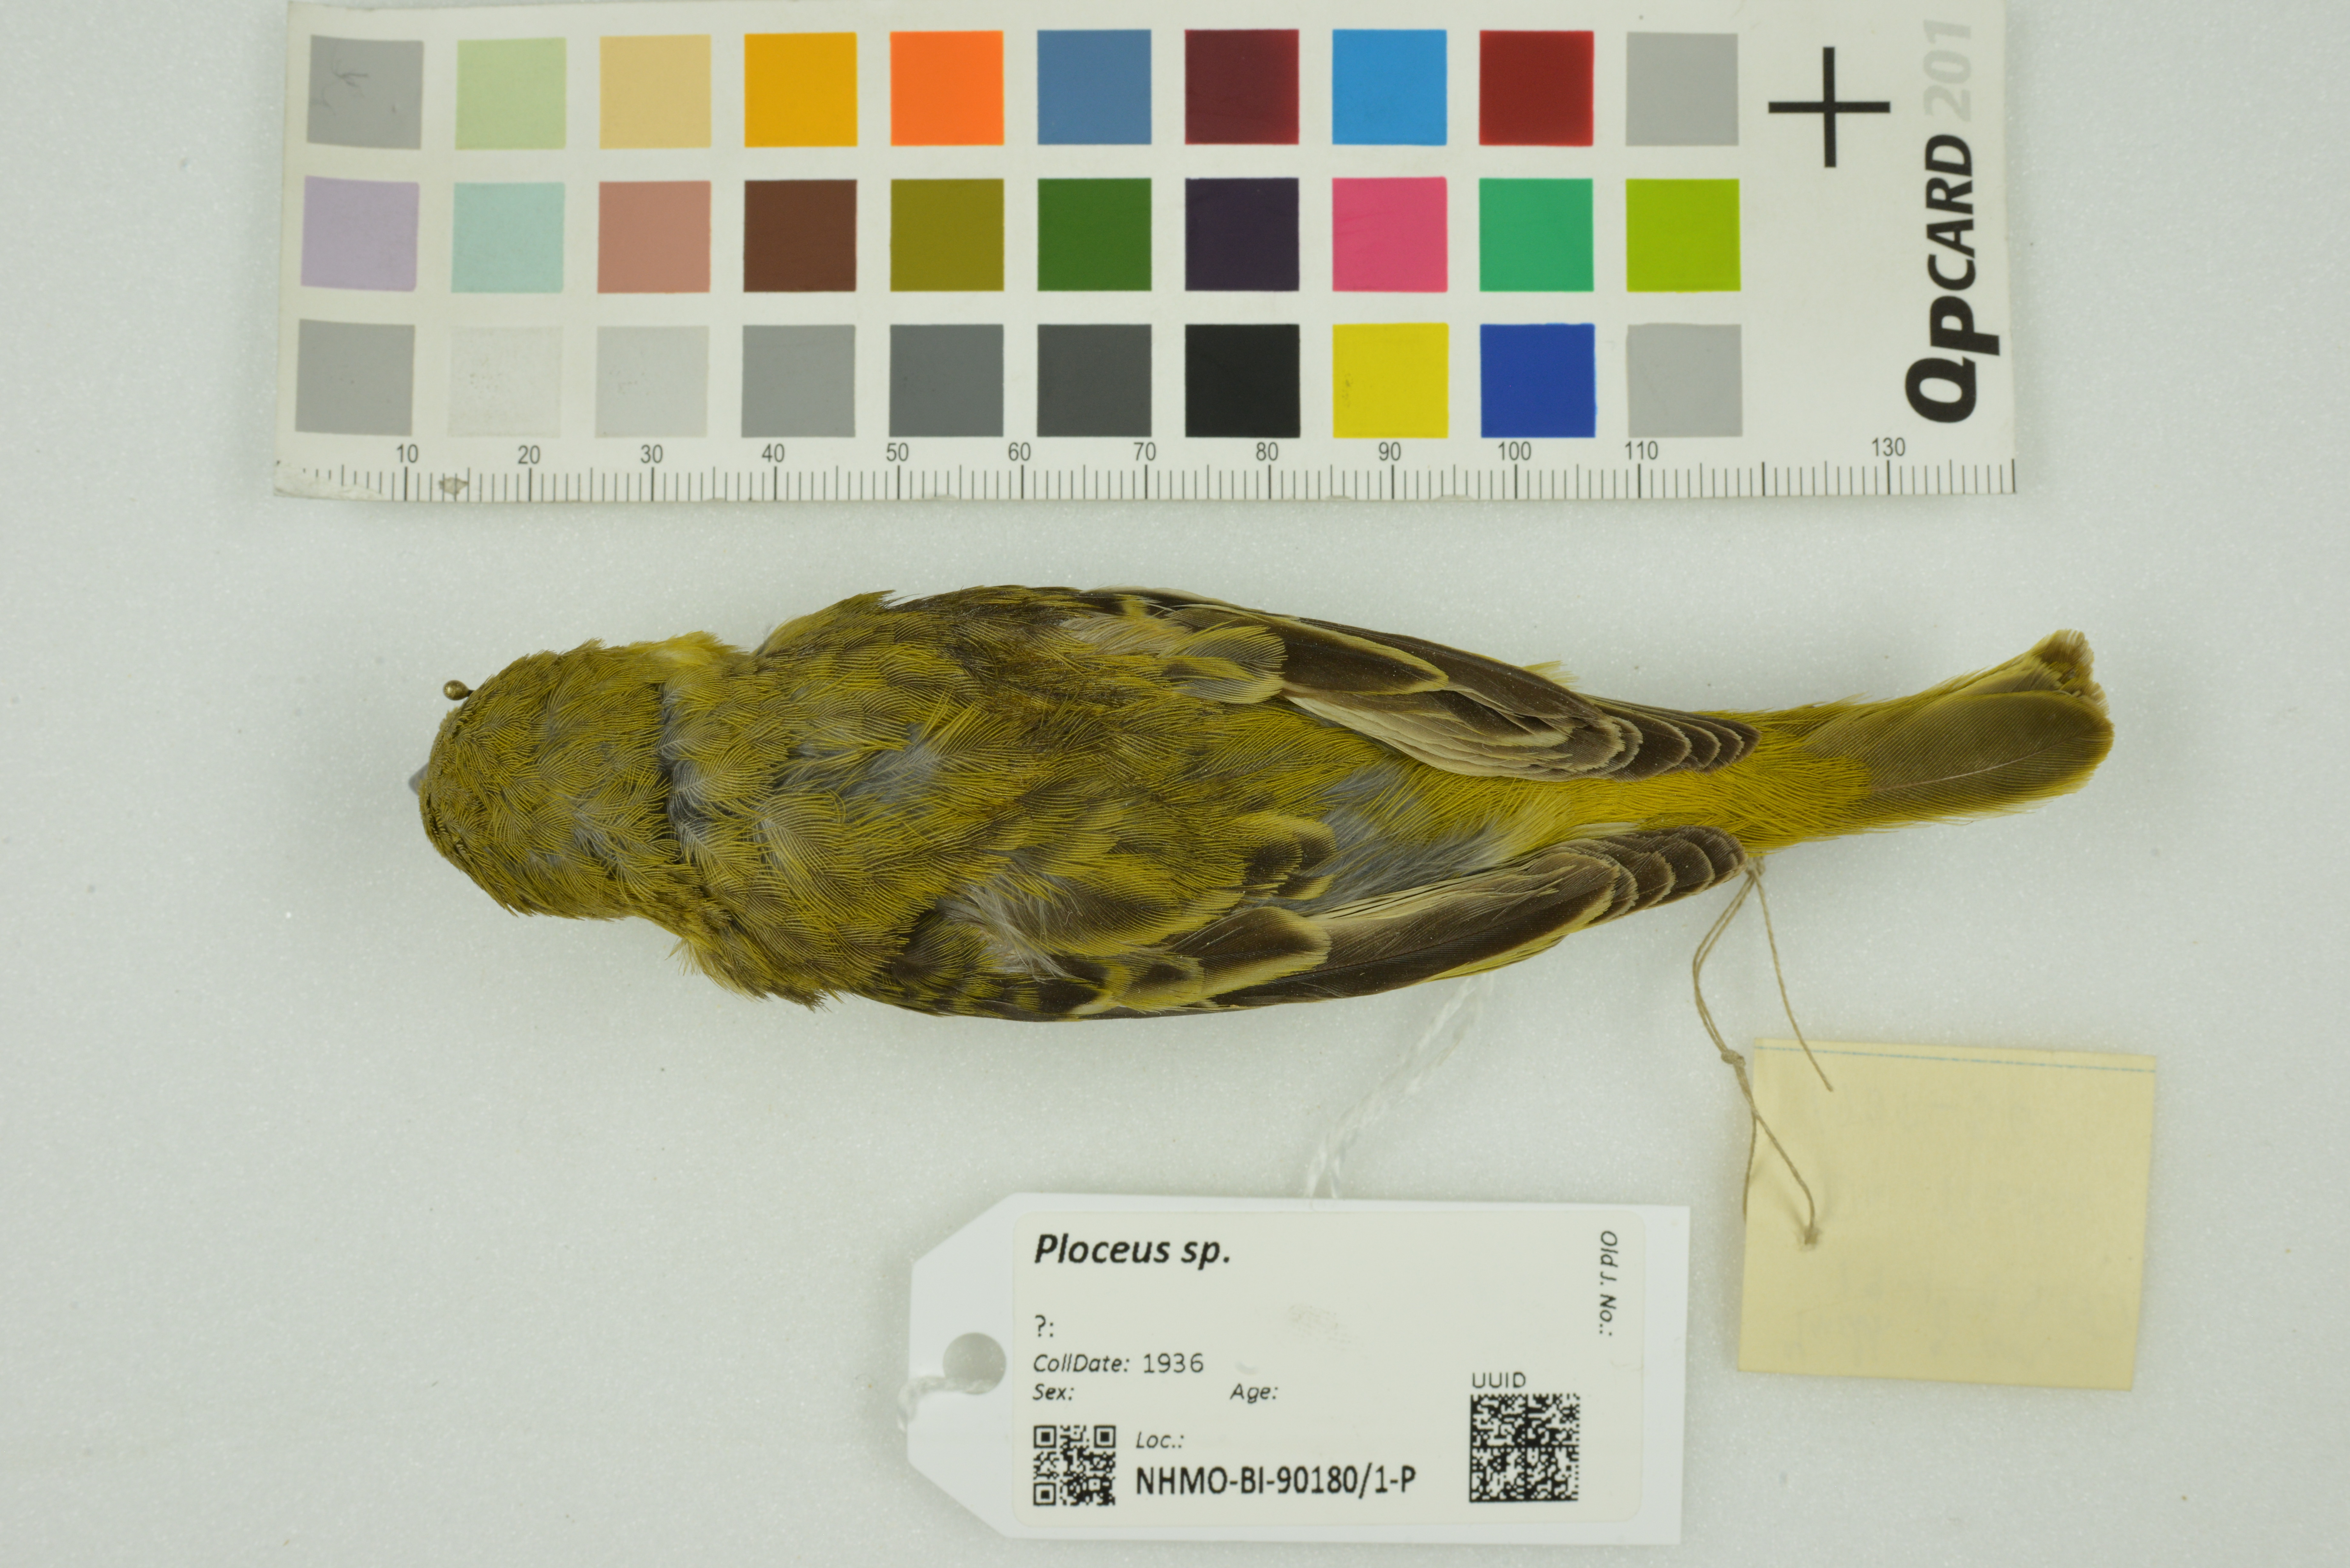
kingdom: Animalia
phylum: Chordata
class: Aves
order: Passeriformes
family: Ploceidae
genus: Ploceus
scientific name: Ploceus
